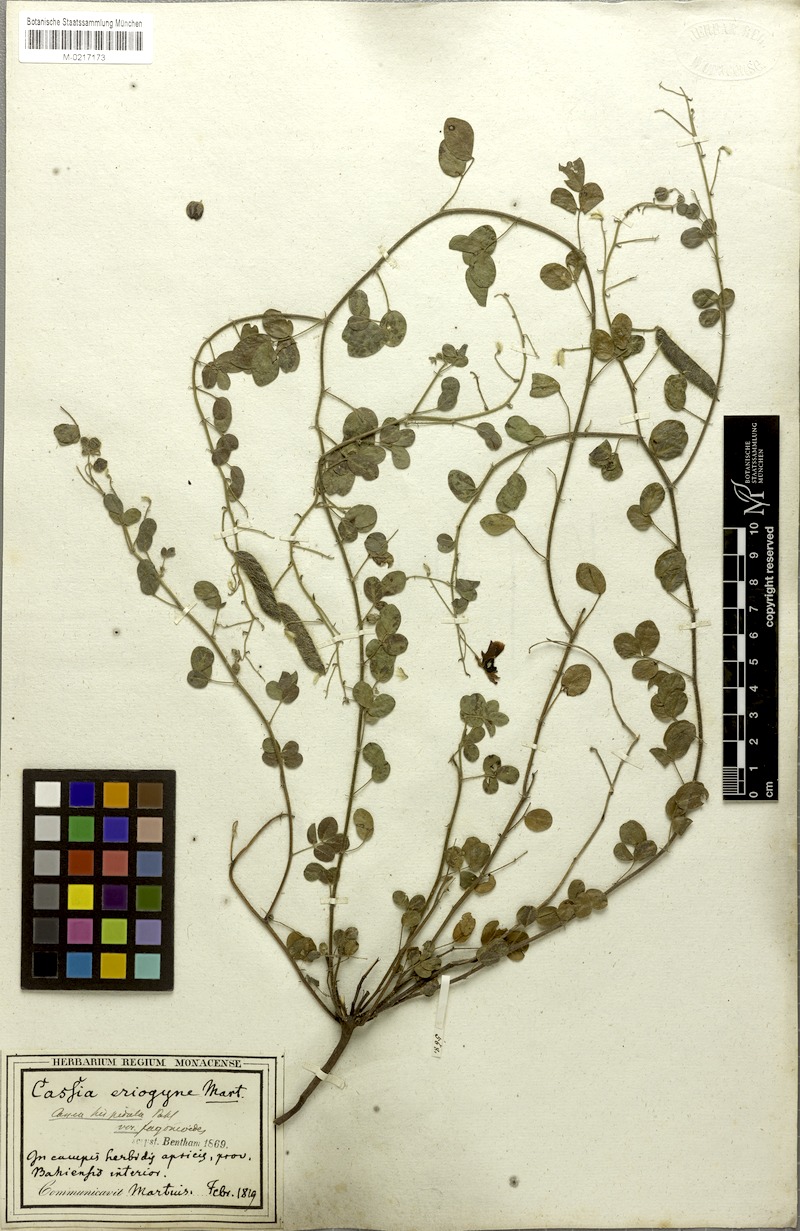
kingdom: Plantae
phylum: Tracheophyta
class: Magnoliopsida
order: Fabales
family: Fabaceae
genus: Chamaecrista
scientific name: Chamaecrista fagonioides
